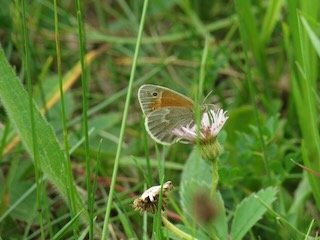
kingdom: Animalia
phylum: Arthropoda
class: Insecta
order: Lepidoptera
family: Nymphalidae
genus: Coenonympha
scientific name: Coenonympha tullia
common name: Large Heath
